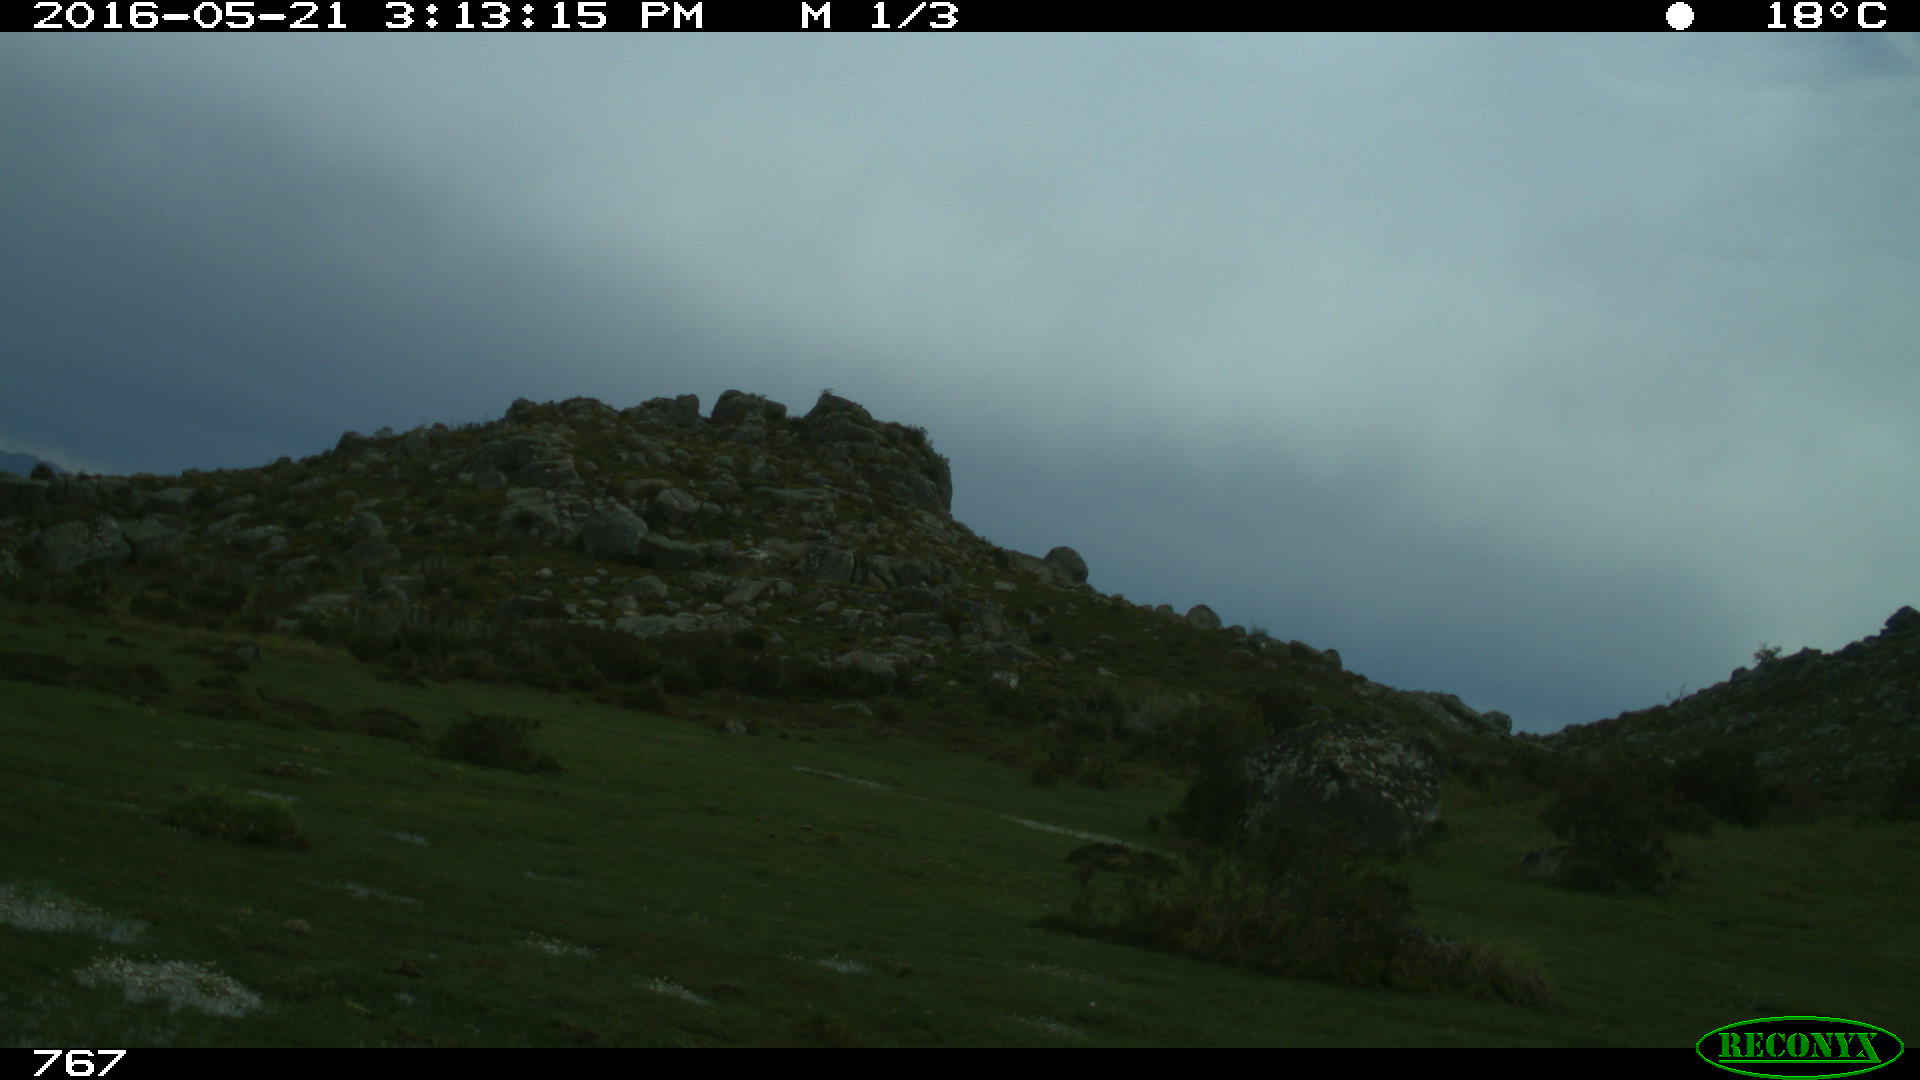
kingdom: Animalia
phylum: Chordata
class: Mammalia
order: Perissodactyla
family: Equidae
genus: Equus
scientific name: Equus caballus
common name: Horse
